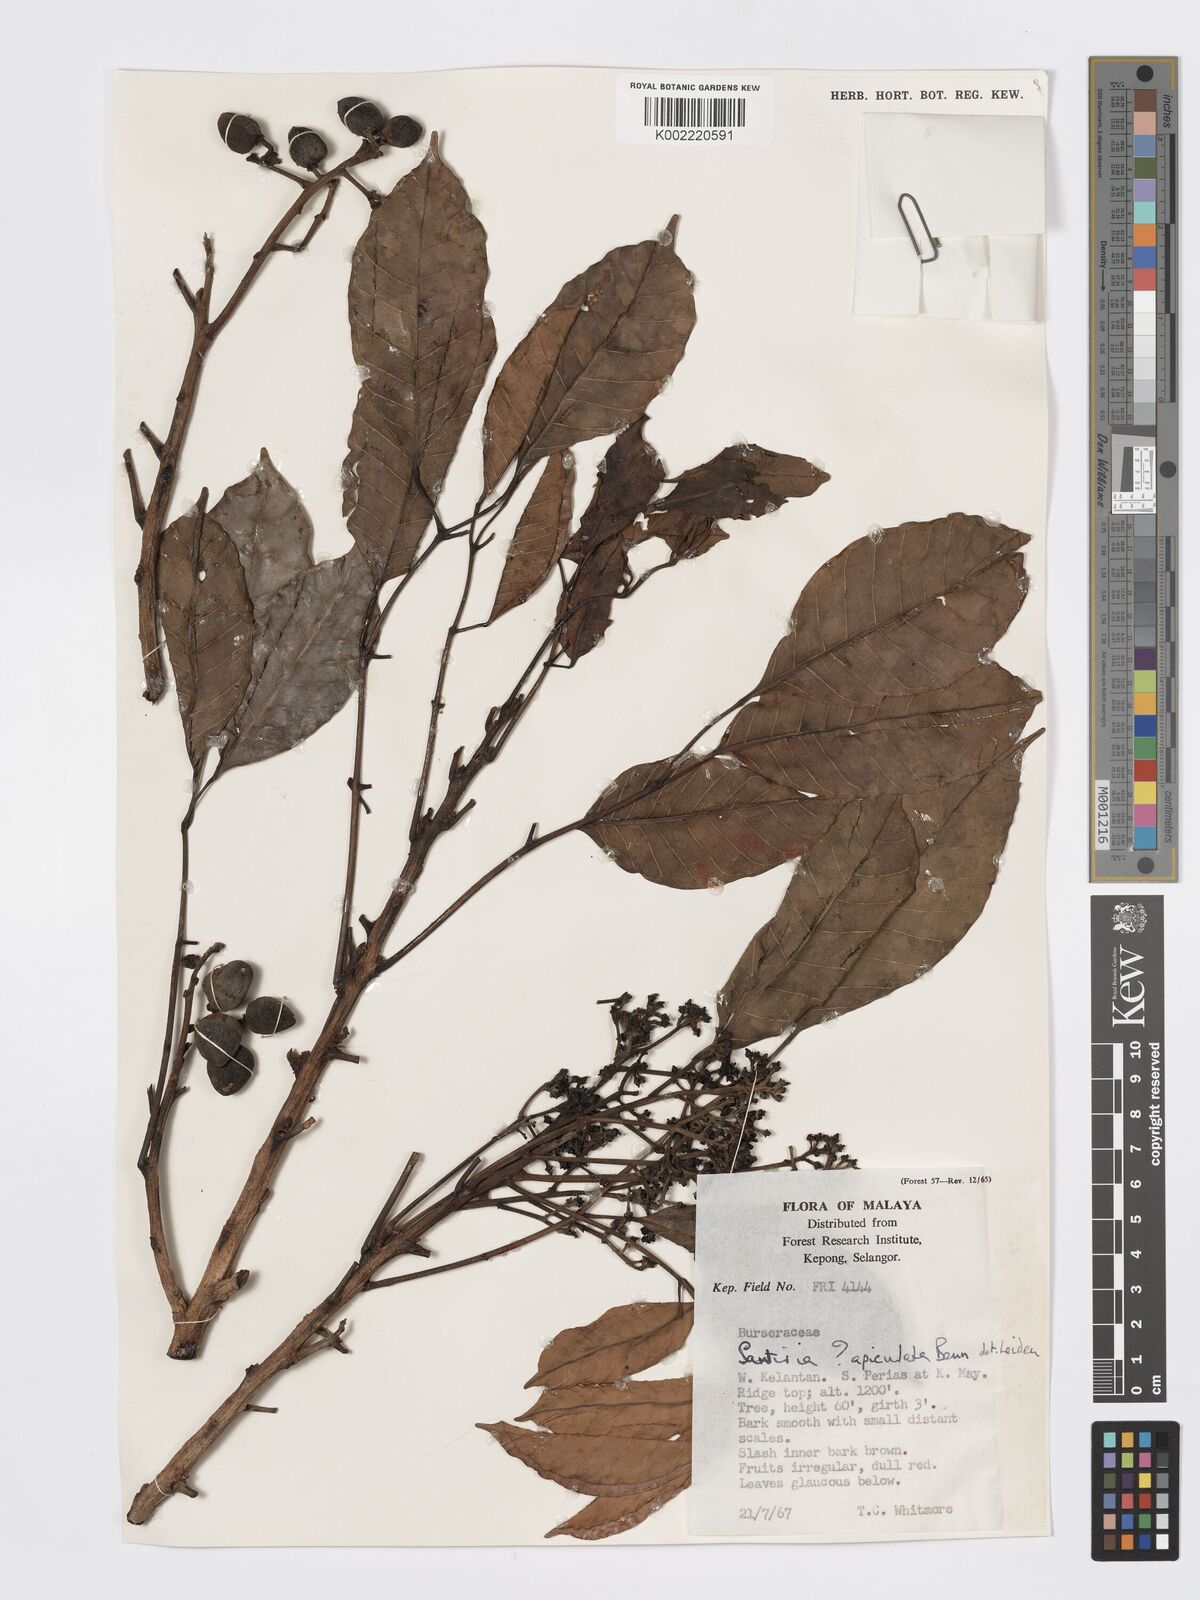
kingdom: Plantae
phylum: Tracheophyta
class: Magnoliopsida
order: Sapindales
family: Burseraceae
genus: Santiria
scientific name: Santiria apiculata
